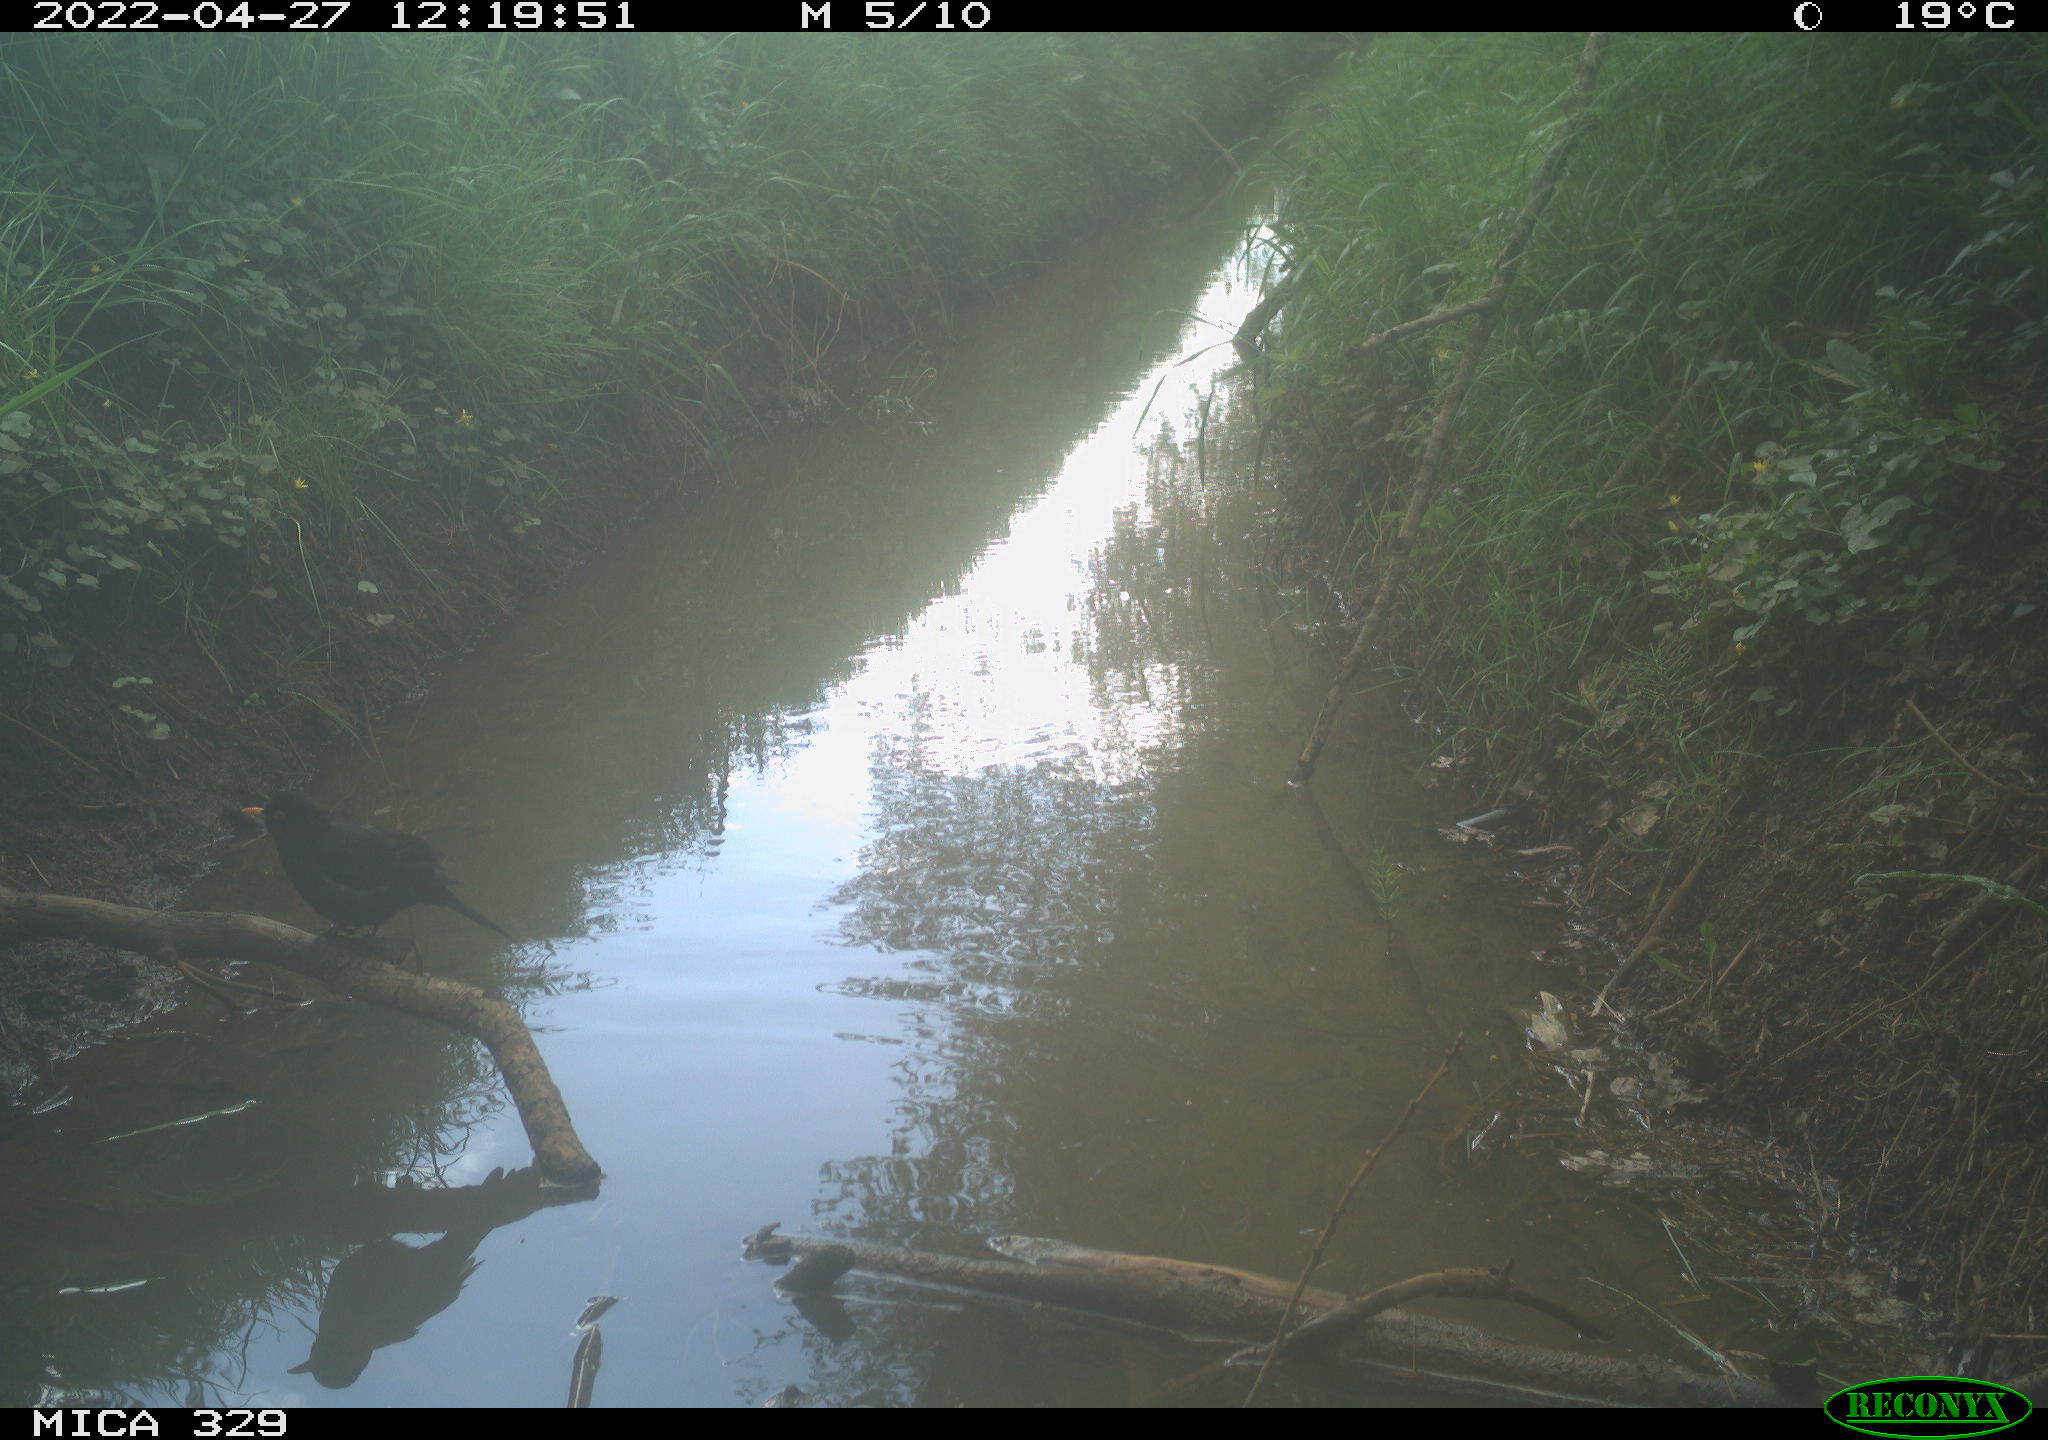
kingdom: Animalia
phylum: Chordata
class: Aves
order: Gruiformes
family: Rallidae
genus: Gallinula
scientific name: Gallinula chloropus
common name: Common moorhen
